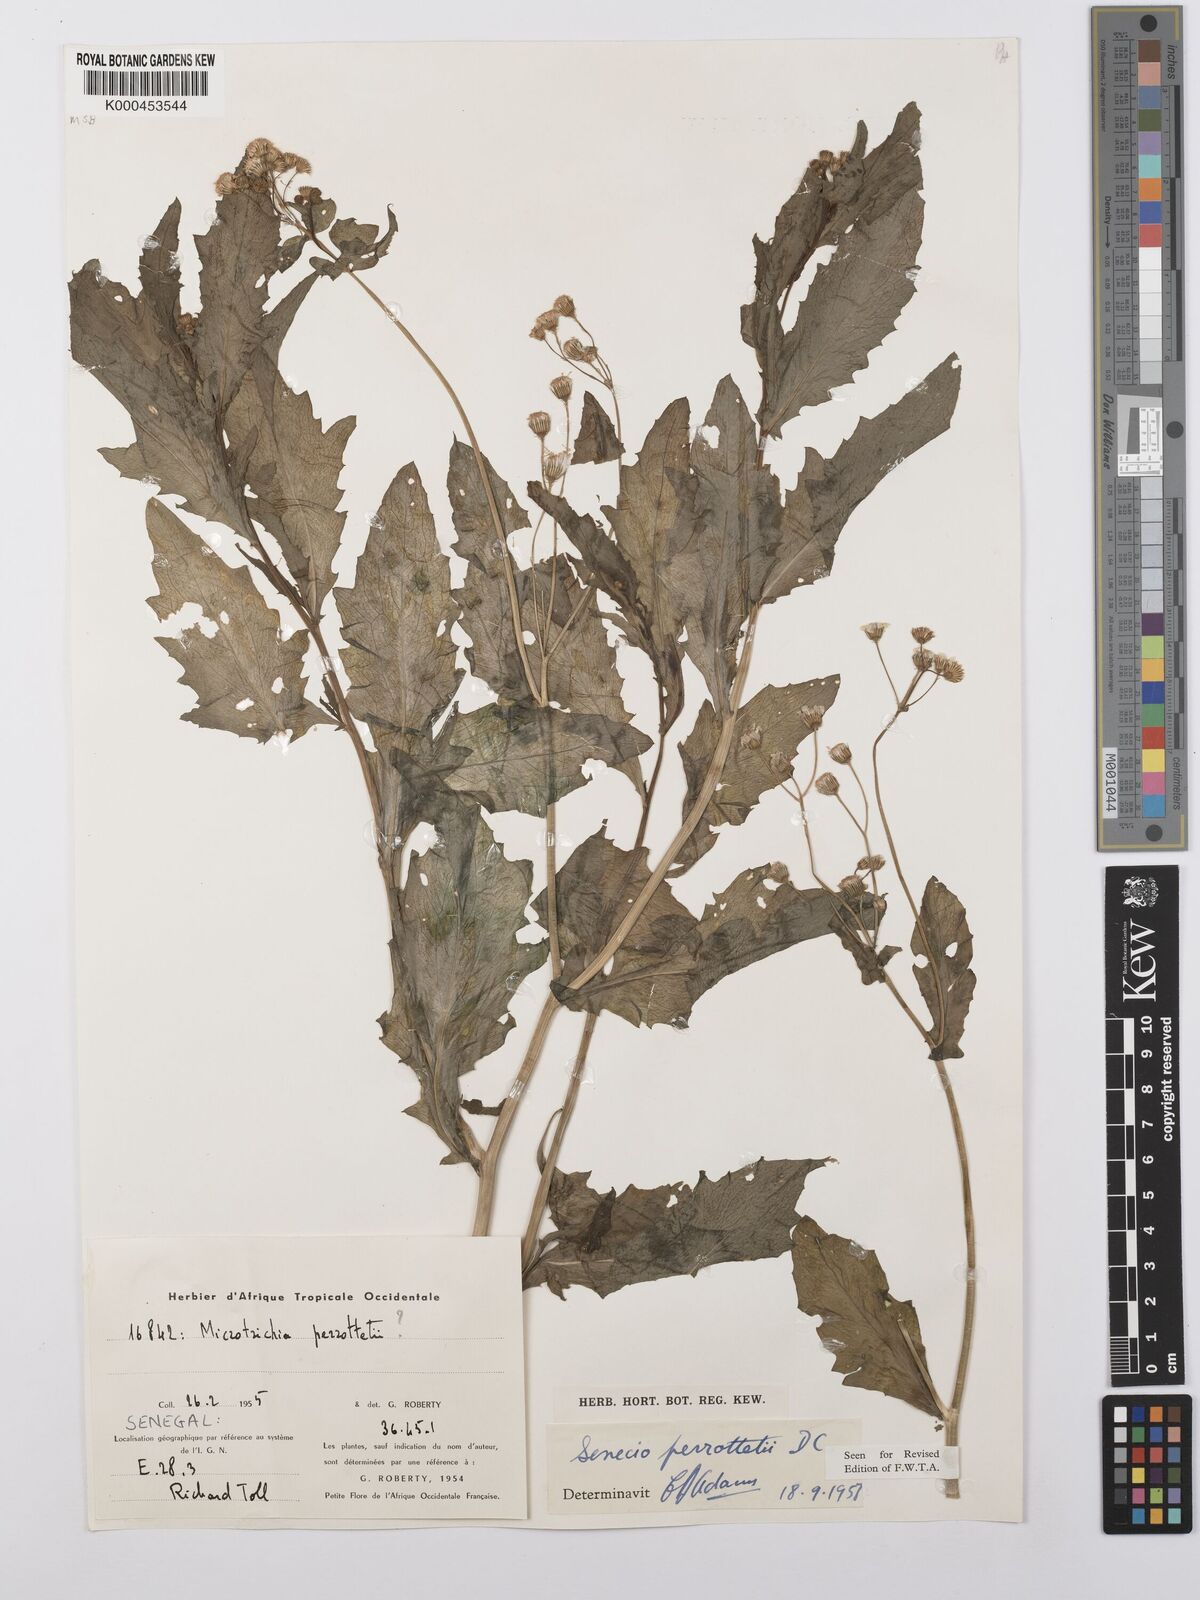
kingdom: Plantae
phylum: Tracheophyta
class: Magnoliopsida
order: Asterales
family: Asteraceae
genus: Senecio
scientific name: Senecio perrottetii
